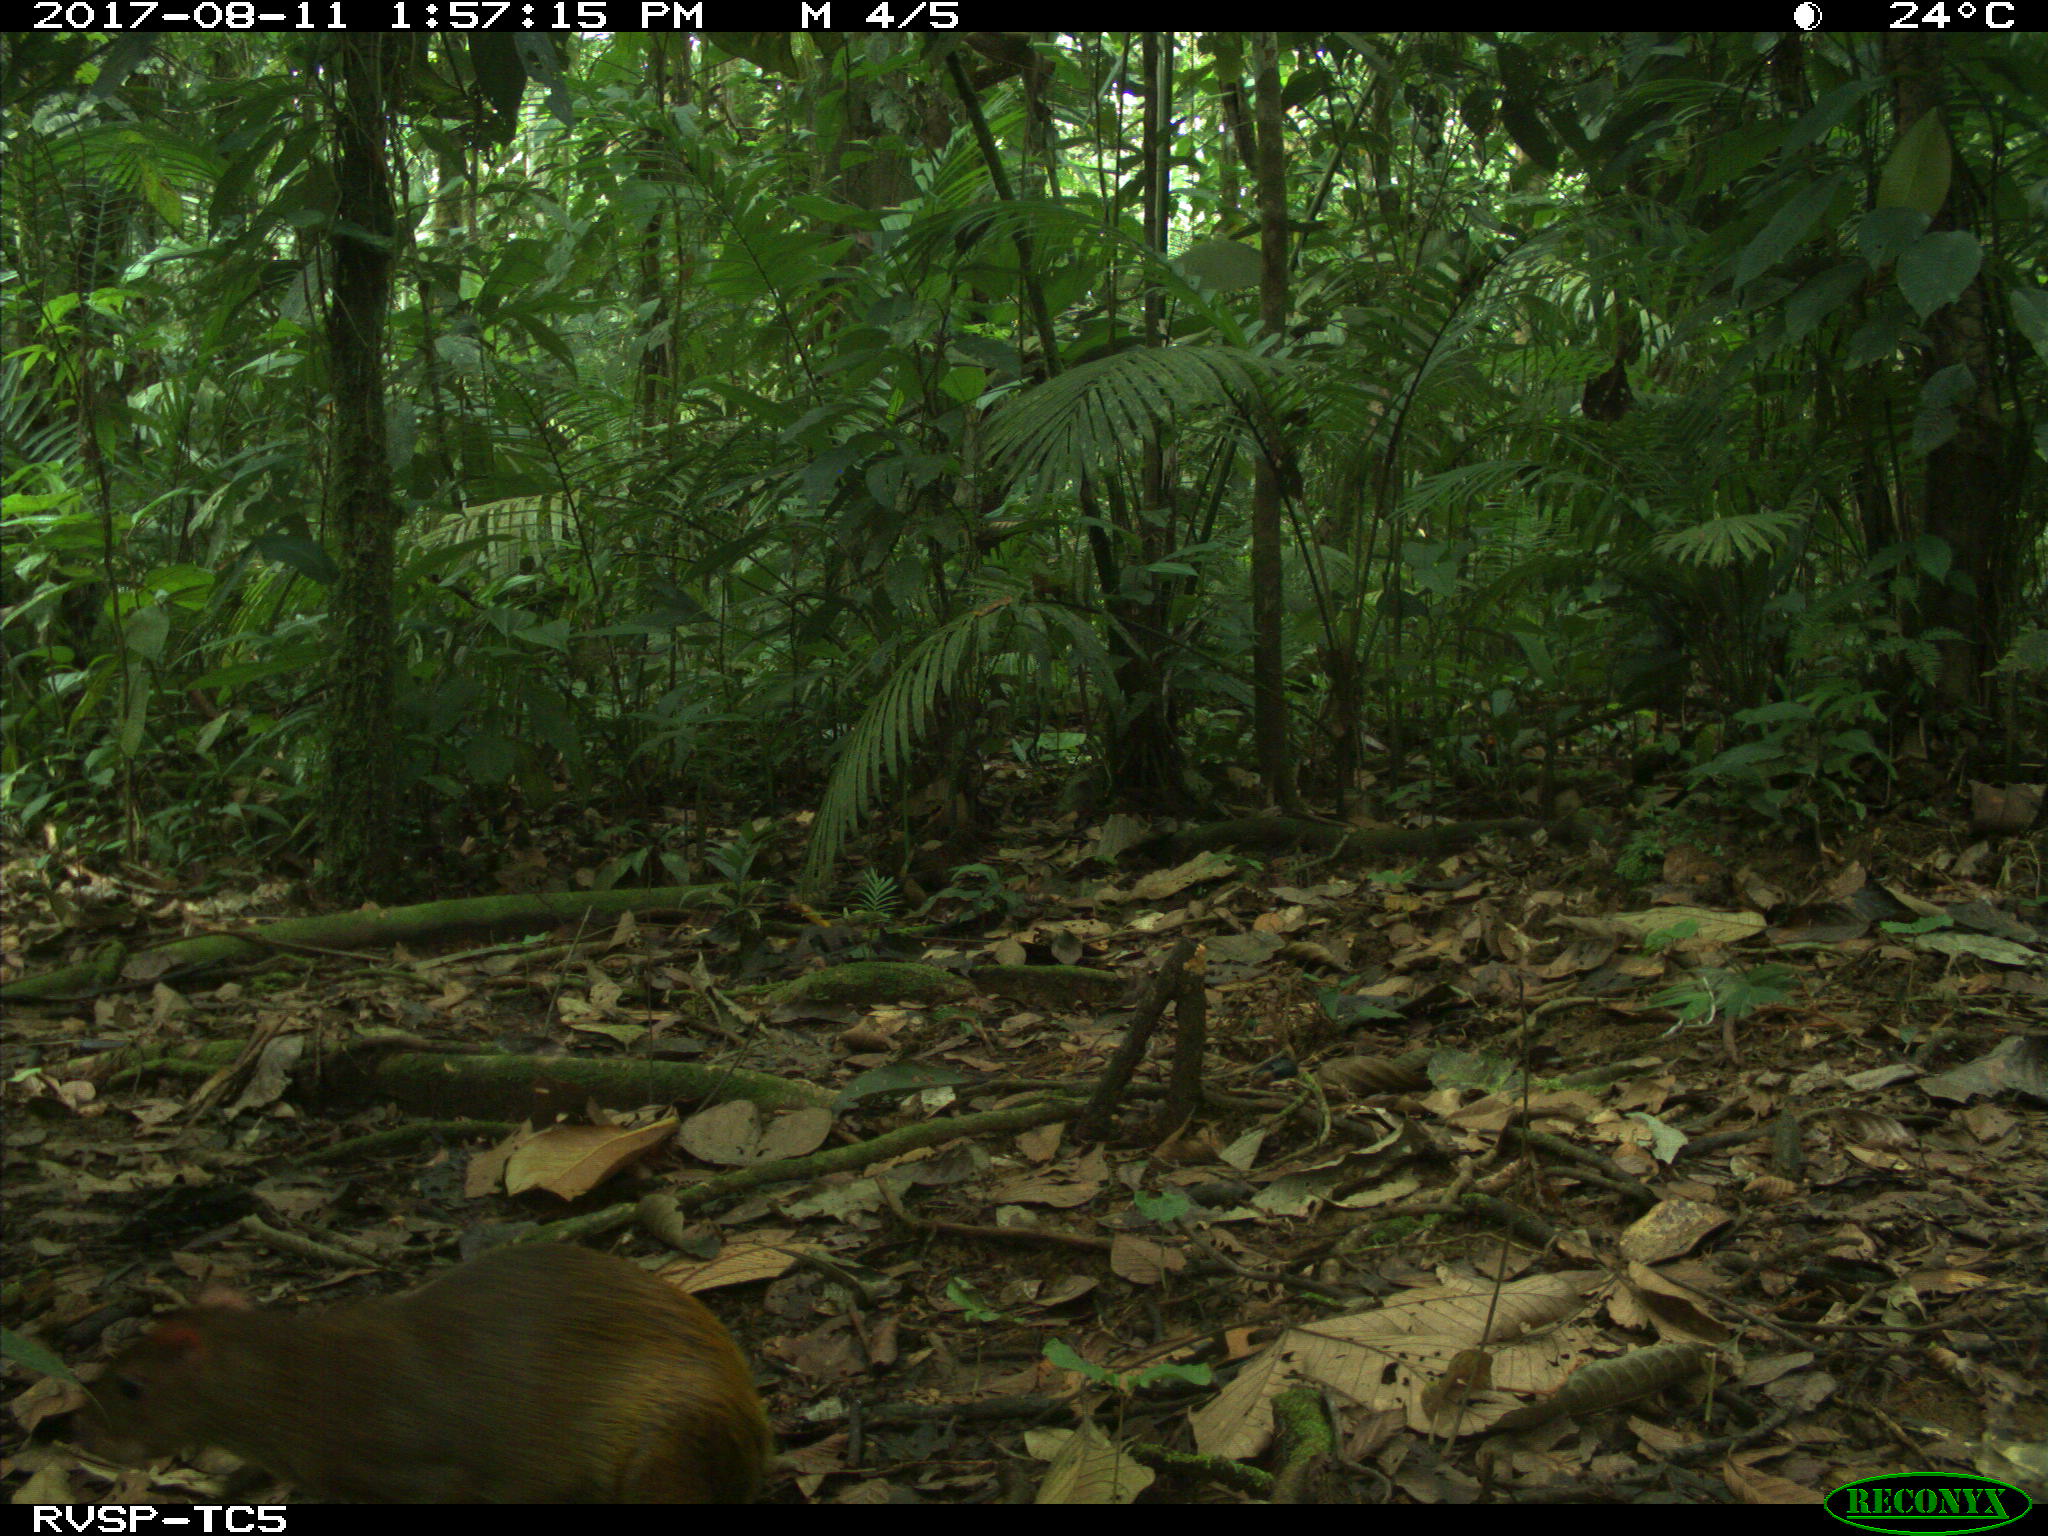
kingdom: Animalia
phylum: Chordata
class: Mammalia
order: Rodentia
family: Dasyproctidae
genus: Dasyprocta
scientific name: Dasyprocta punctata
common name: Central american agouti
